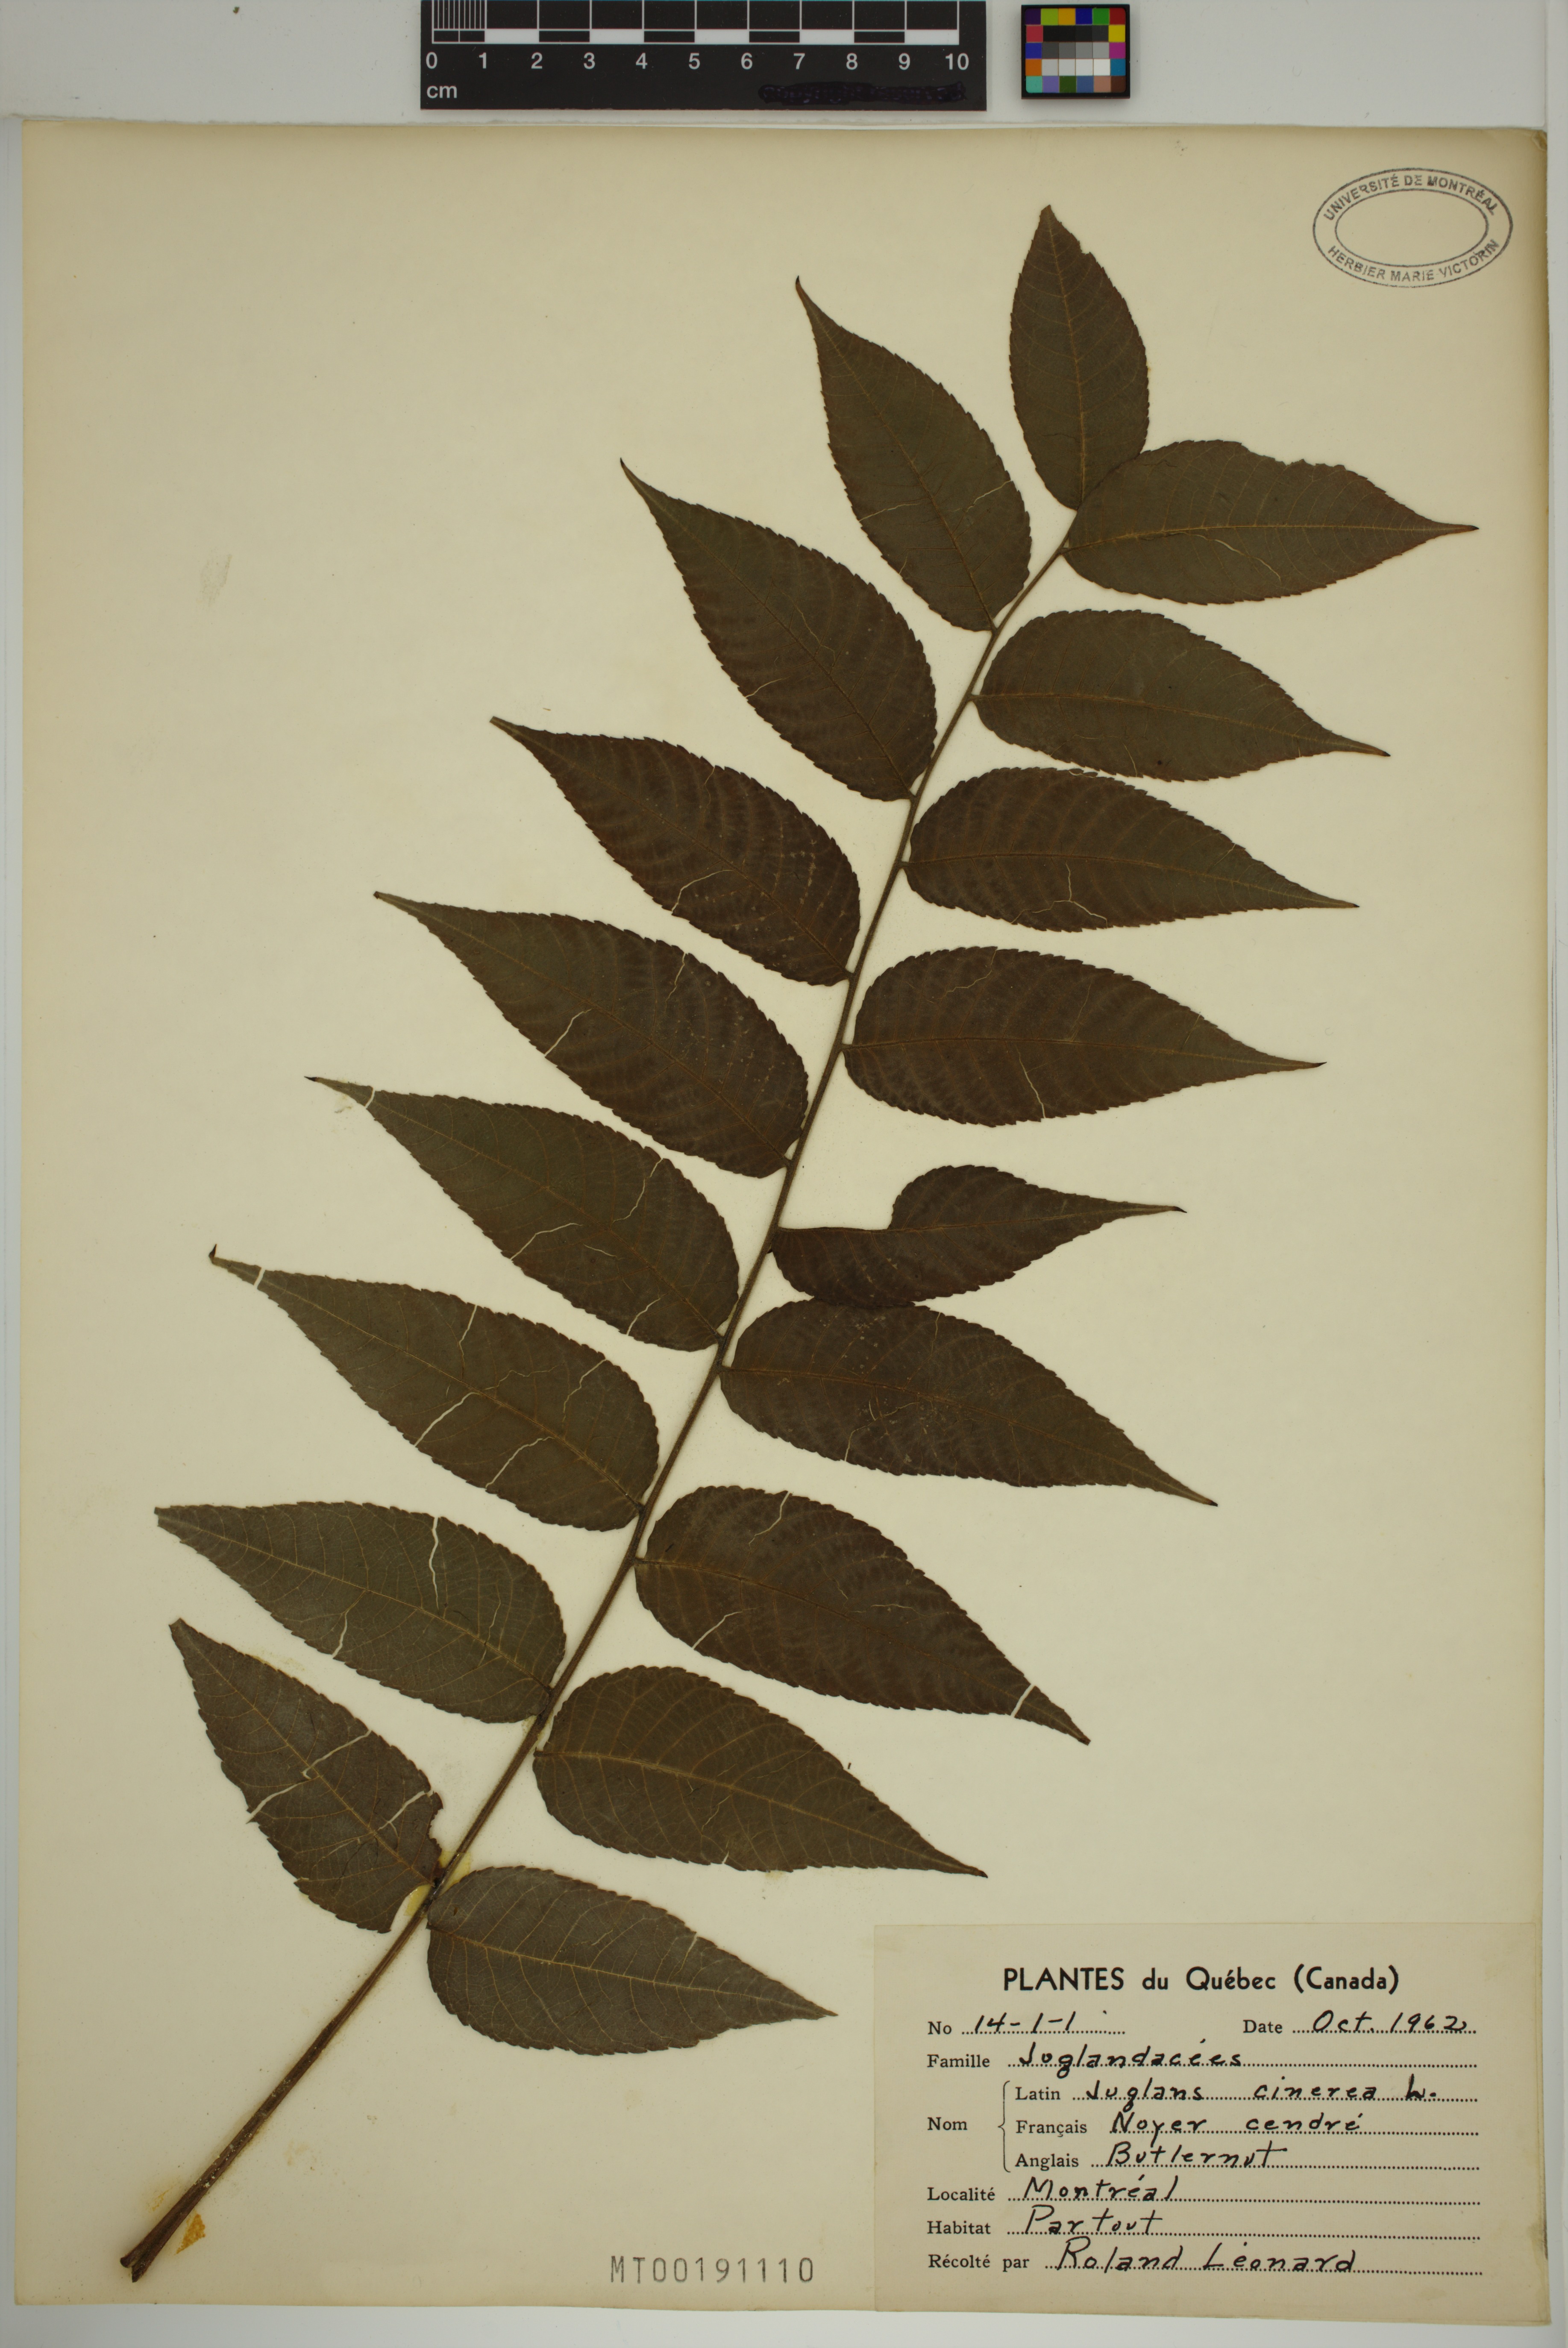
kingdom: Plantae
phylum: Tracheophyta
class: Magnoliopsida
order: Fagales
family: Juglandaceae
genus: Juglans
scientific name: Juglans cinerea
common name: Butternut
